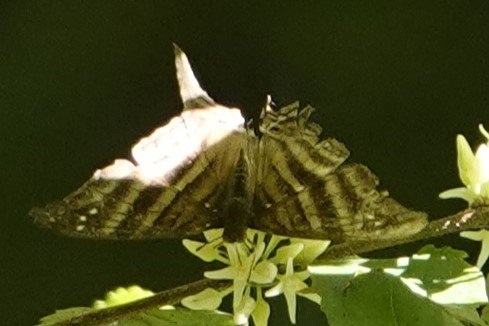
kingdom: Animalia
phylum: Arthropoda
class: Insecta
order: Lepidoptera
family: Nymphalidae
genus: Marpesia
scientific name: Marpesia chiron
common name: Many-banded Daggerwing
